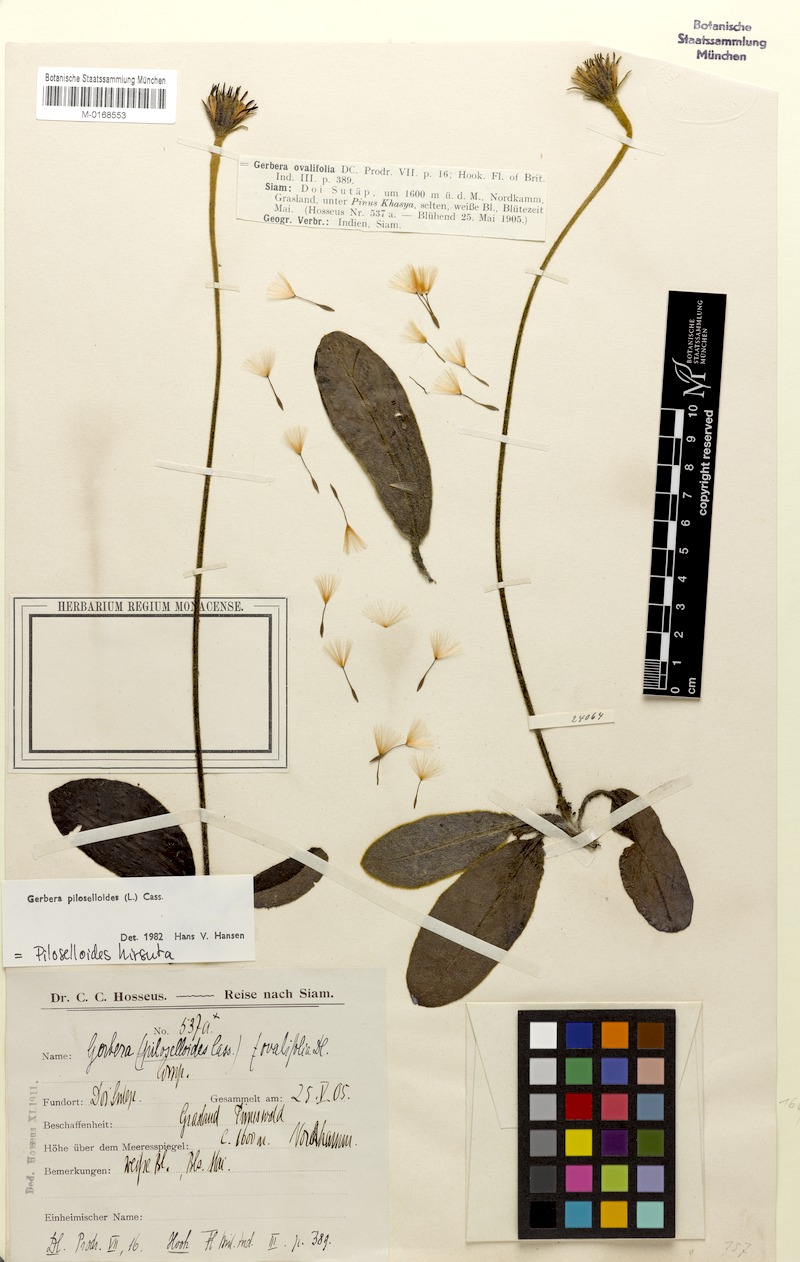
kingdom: Plantae
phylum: Tracheophyta
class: Magnoliopsida
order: Asterales
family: Asteraceae
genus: Piloselloides
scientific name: Piloselloides hirsuta
